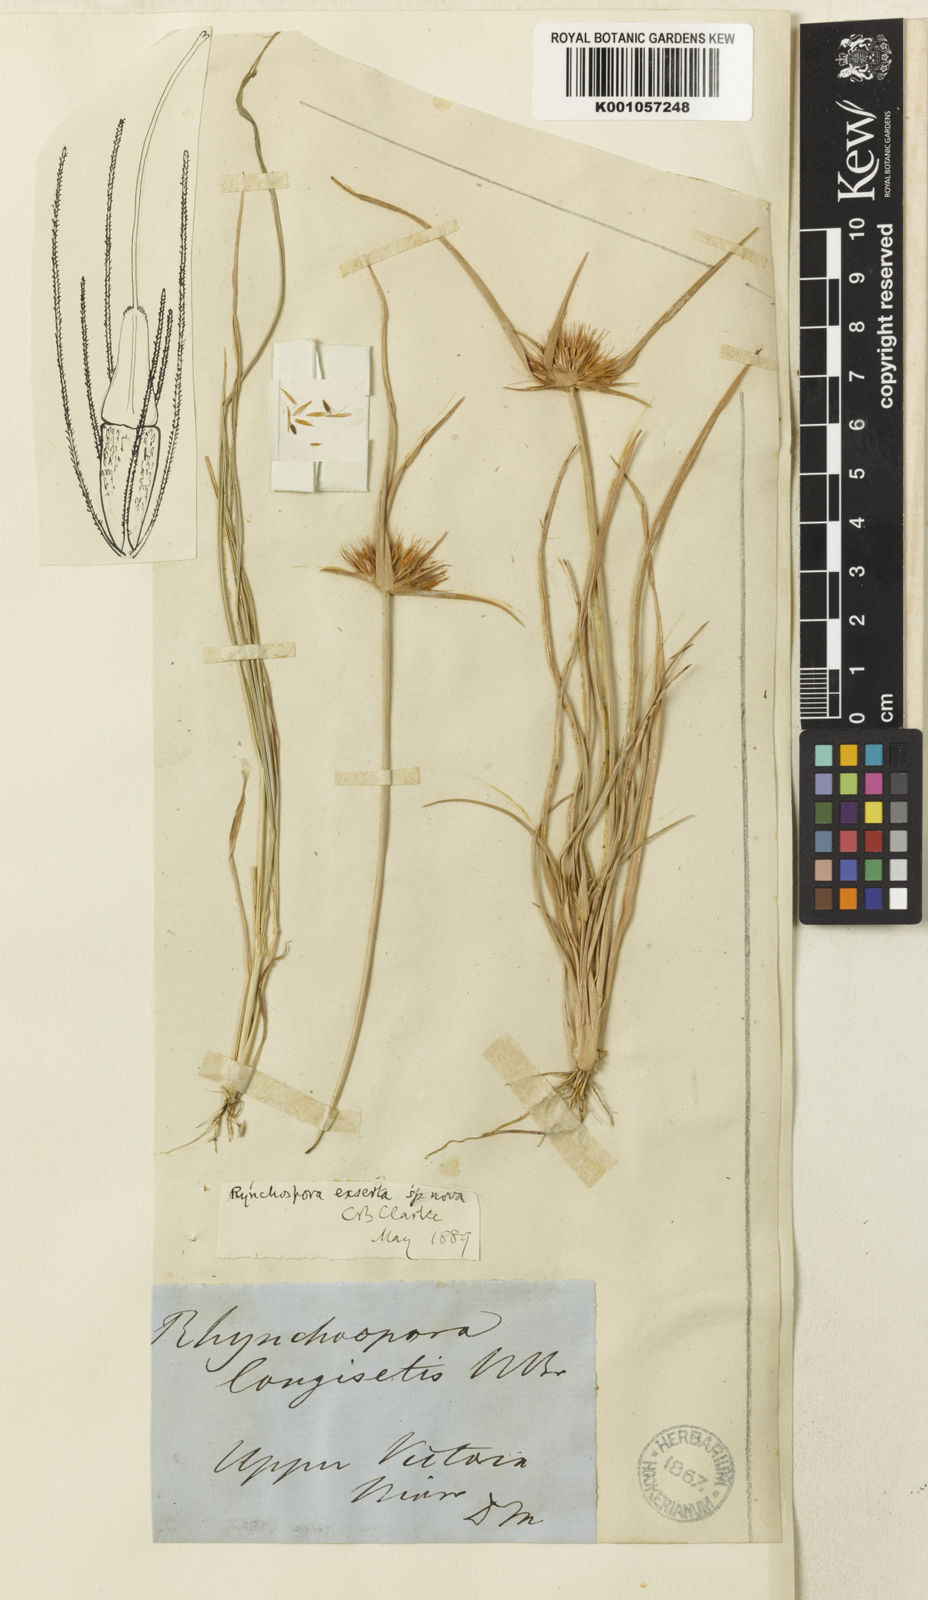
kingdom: Plantae
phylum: Tracheophyta
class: Liliopsida
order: Poales
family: Cyperaceae
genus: Rhynchospora
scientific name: Rhynchospora exserta
